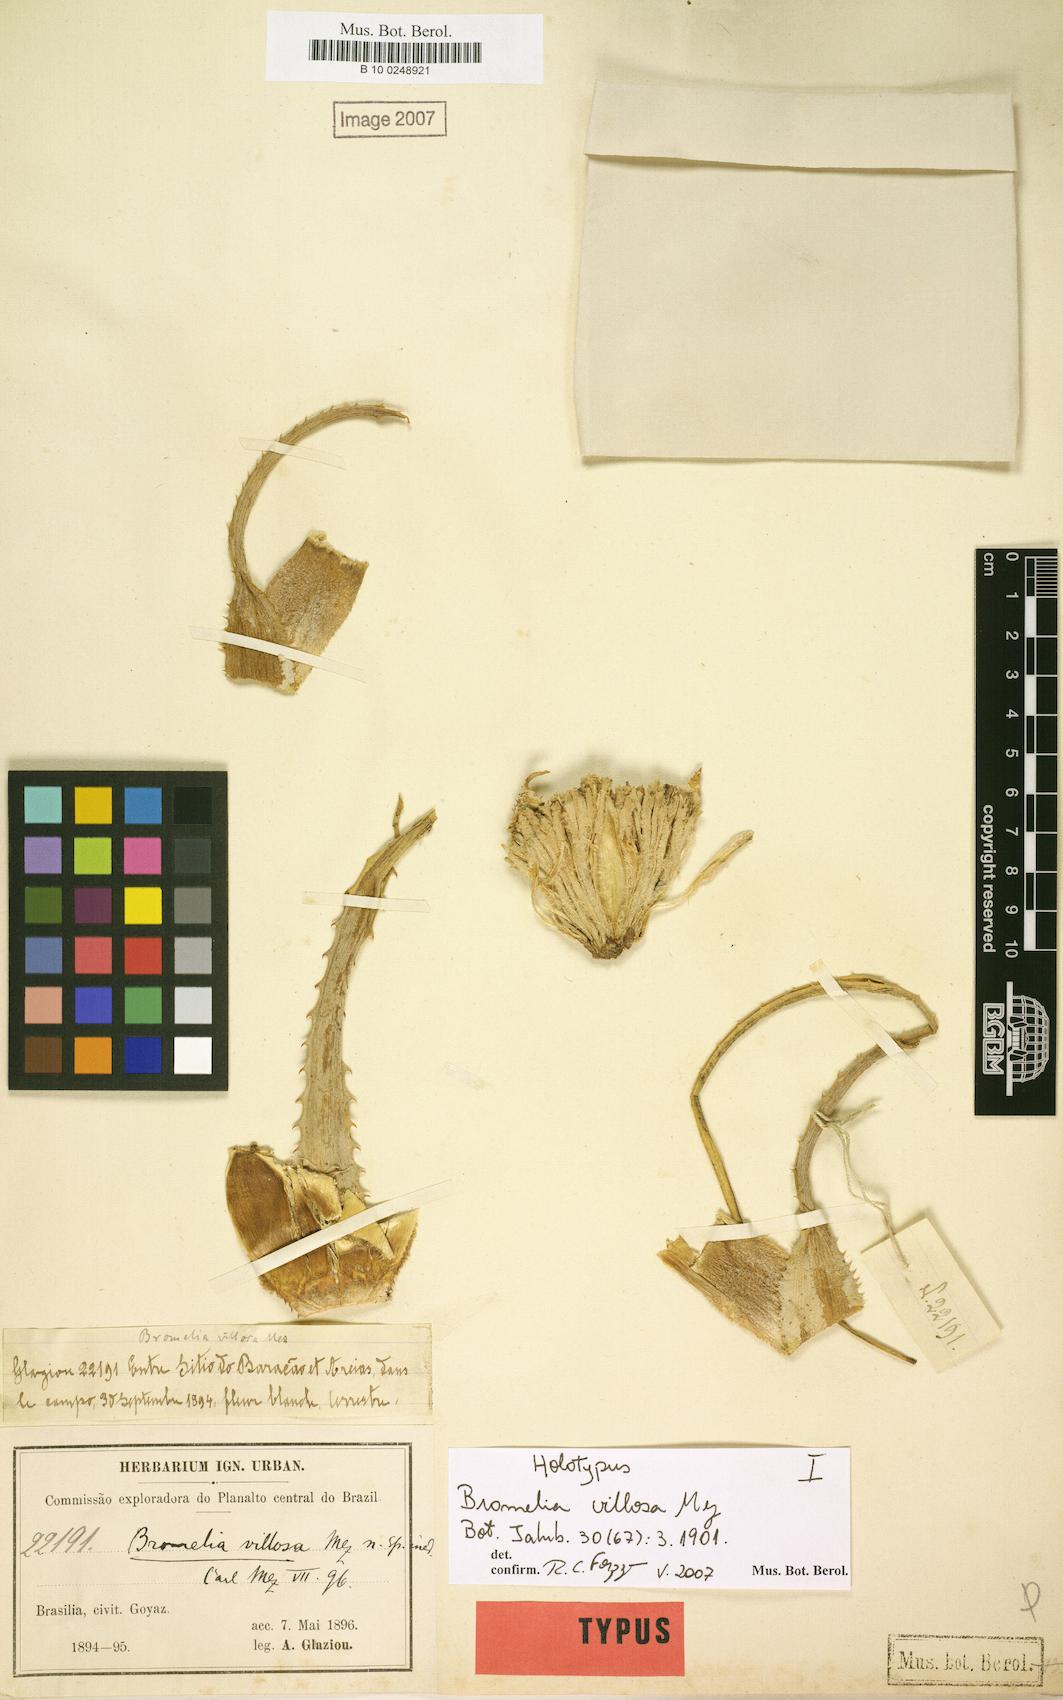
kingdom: Plantae
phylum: Tracheophyta
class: Liliopsida
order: Poales
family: Bromeliaceae
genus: Bromelia
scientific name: Bromelia villosa
